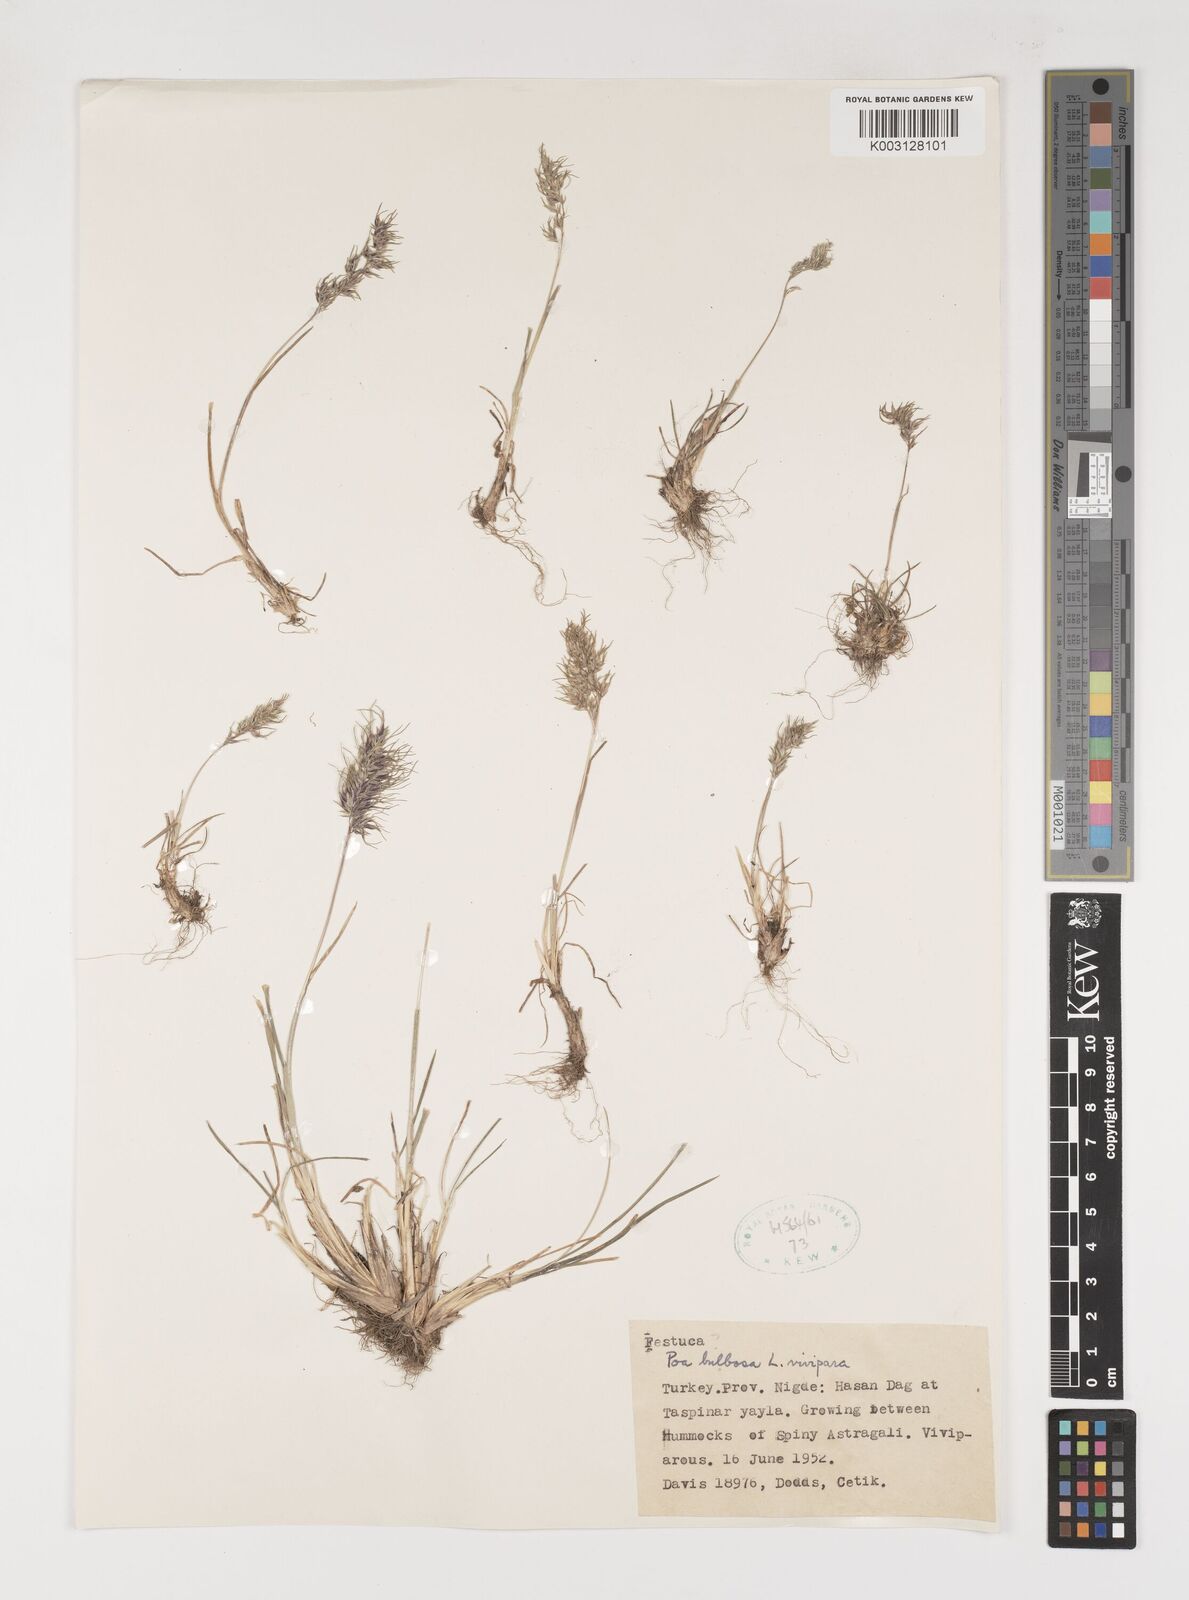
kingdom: Plantae
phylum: Tracheophyta
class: Liliopsida
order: Poales
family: Poaceae
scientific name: Poaceae
